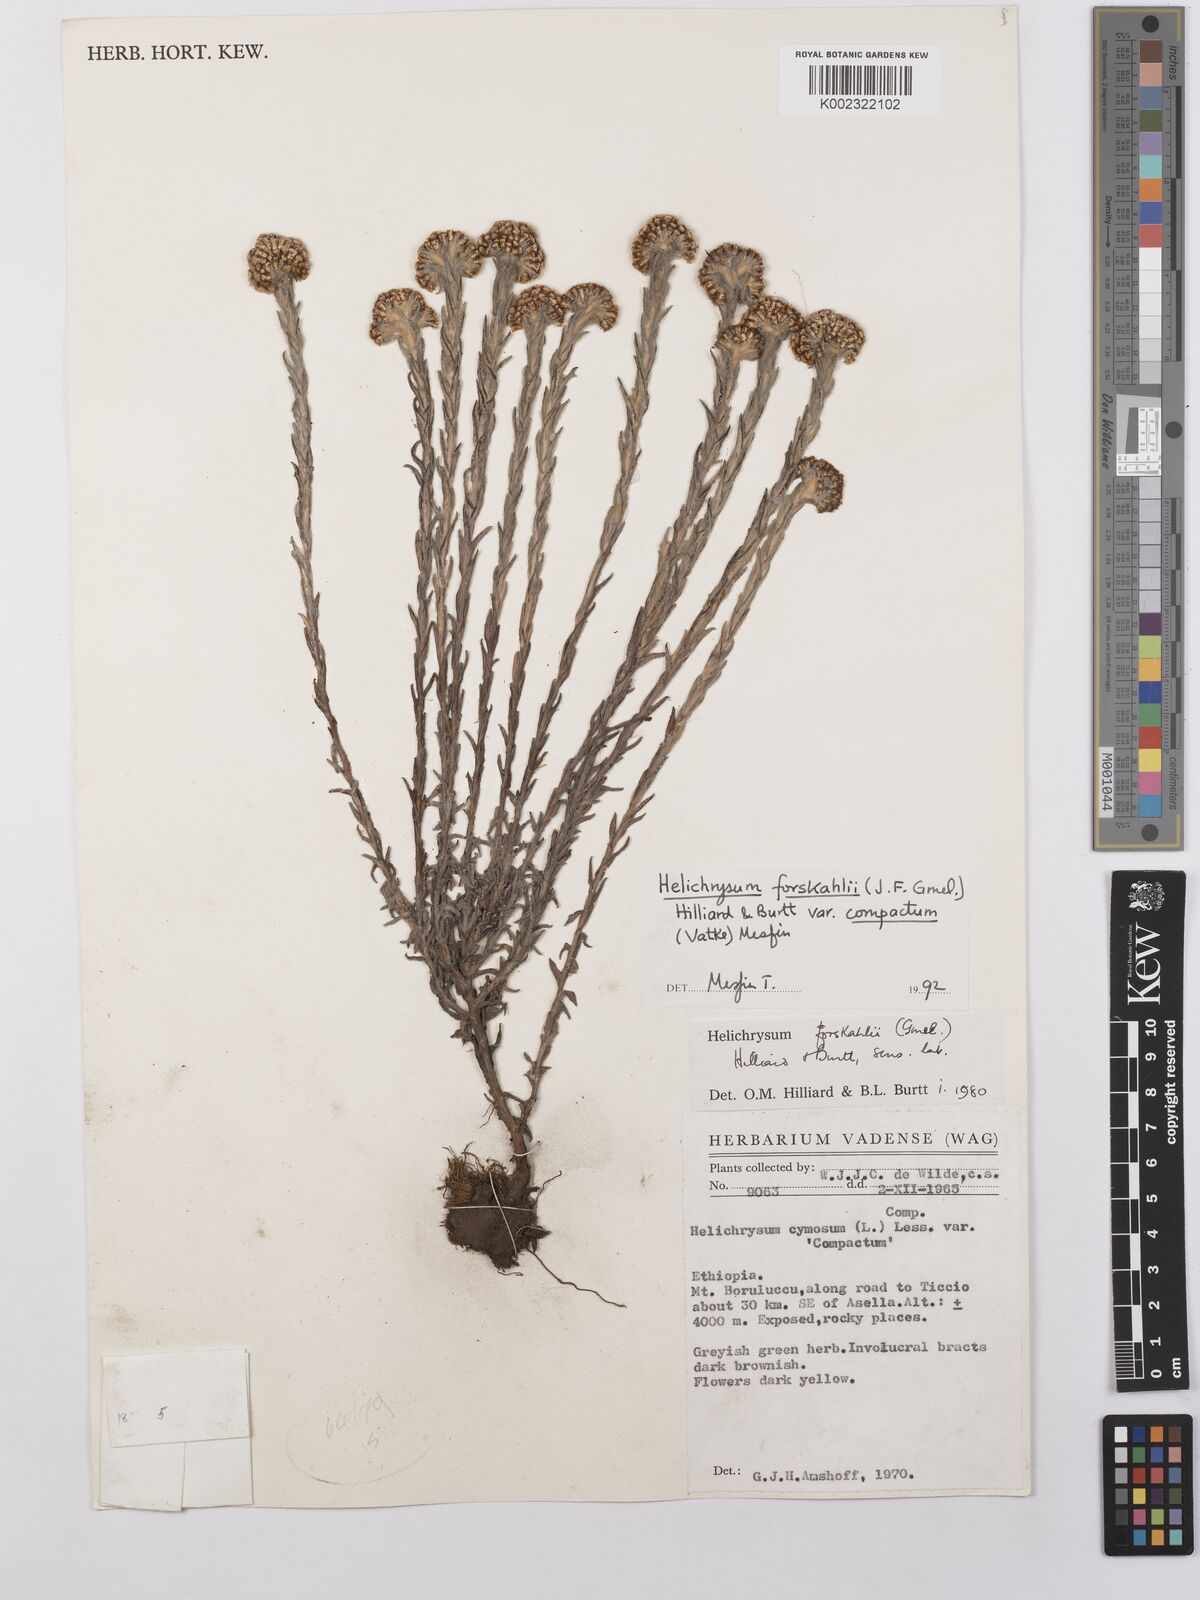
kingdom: Plantae
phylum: Tracheophyta
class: Magnoliopsida
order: Asterales
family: Asteraceae
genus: Helichrysum
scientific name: Helichrysum forskahlii
